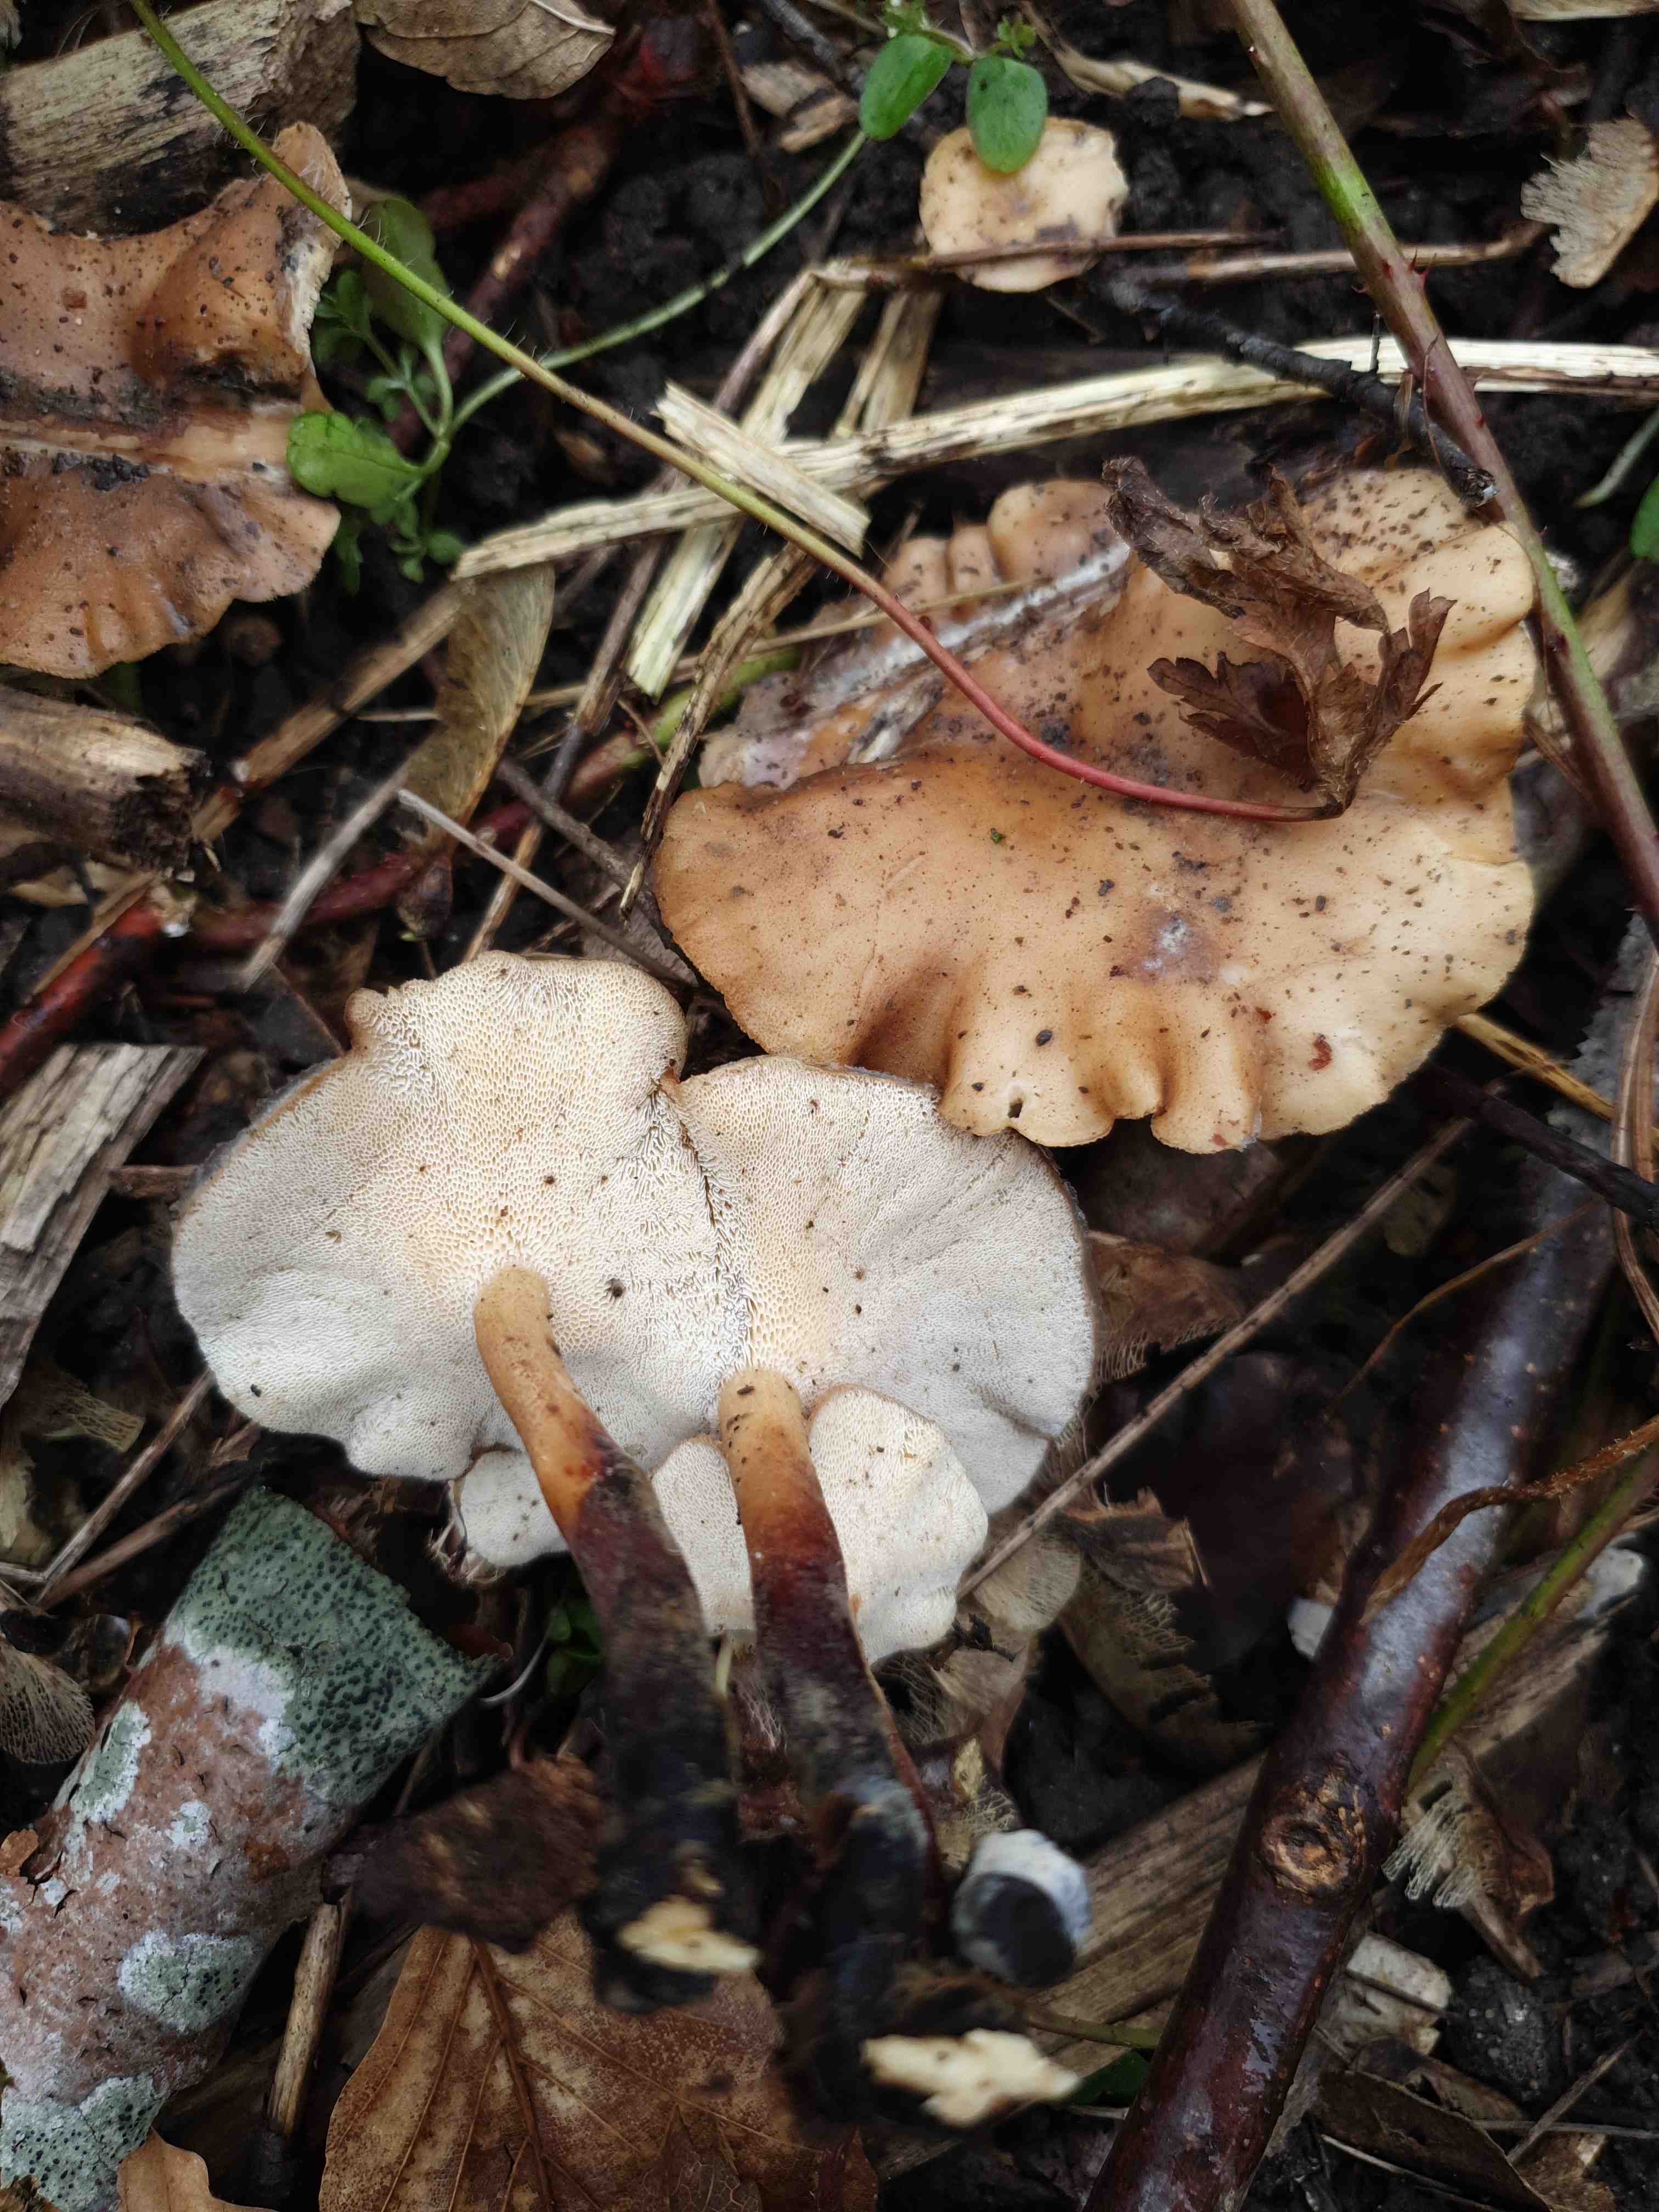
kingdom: Fungi
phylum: Basidiomycota
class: Agaricomycetes
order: Polyporales
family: Polyporaceae
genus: Lentinus
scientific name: Lentinus brumalis
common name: vinter-stilkporesvamp
